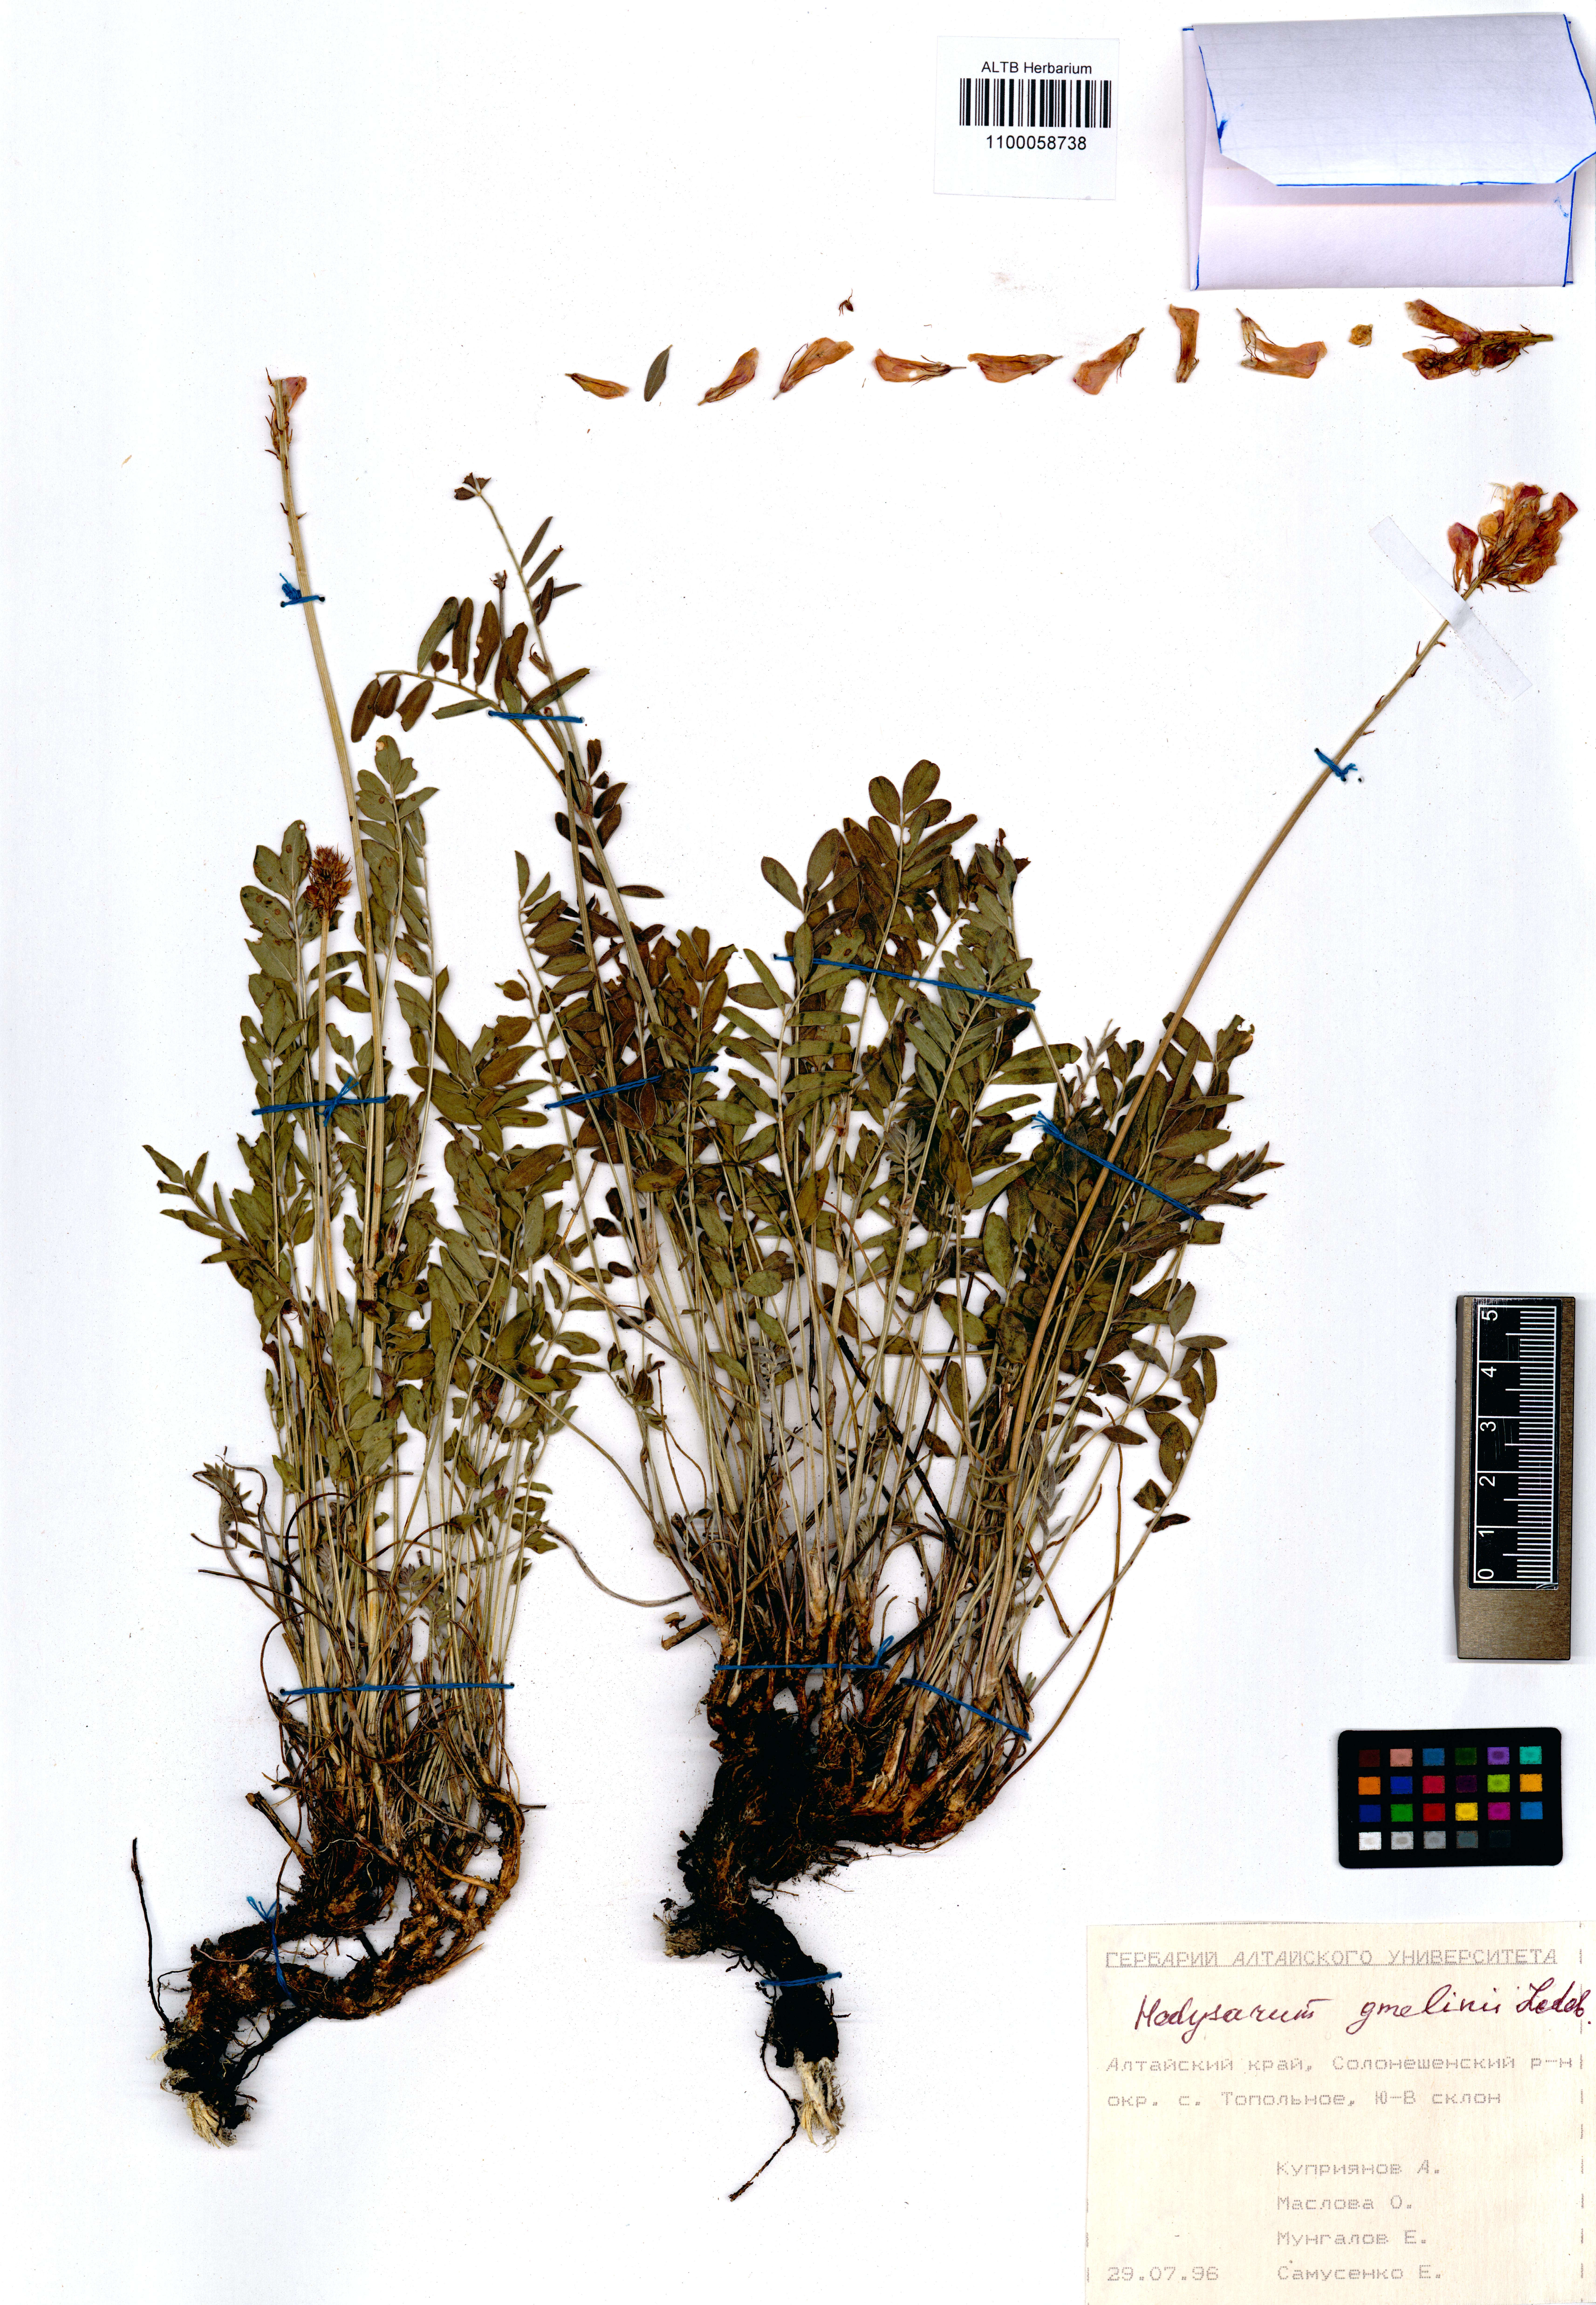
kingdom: Plantae
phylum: Tracheophyta
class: Magnoliopsida
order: Fabales
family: Fabaceae
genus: Hedysarum
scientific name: Hedysarum gmelinii
